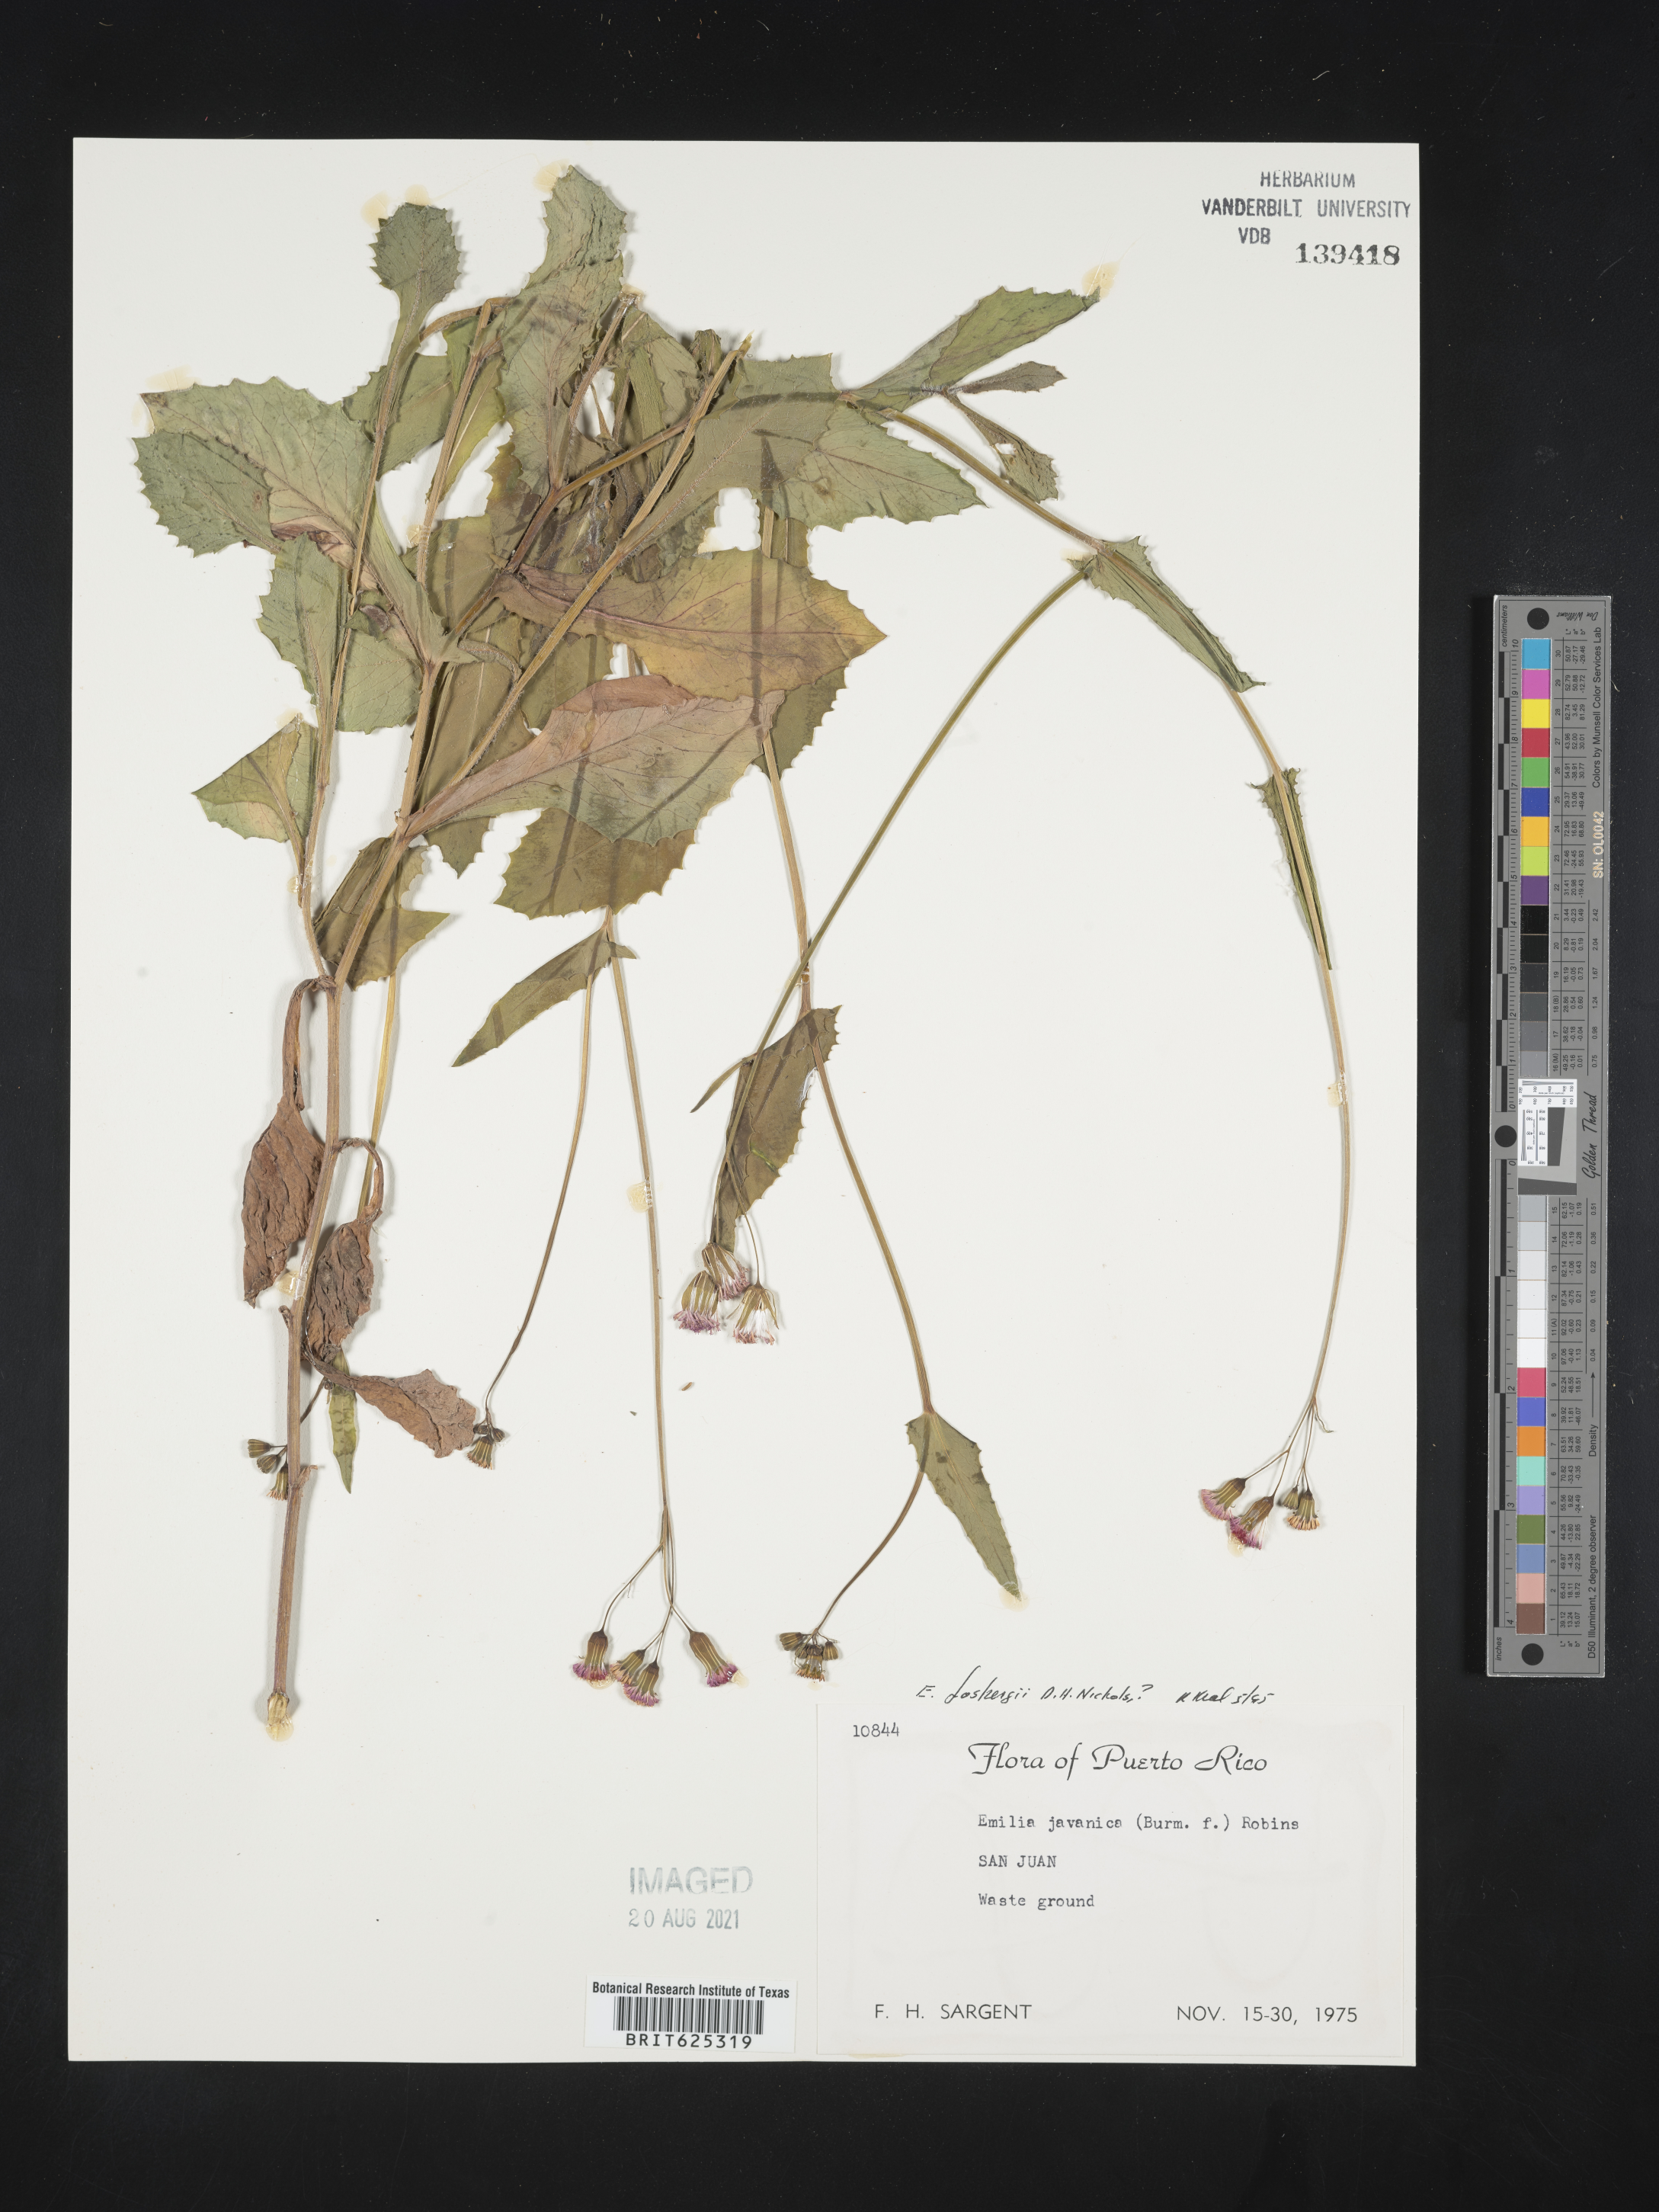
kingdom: Plantae
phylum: Tracheophyta
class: Magnoliopsida
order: Asterales
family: Asteraceae
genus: Emilia
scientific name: Emilia javanica
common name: Tassel-flower
